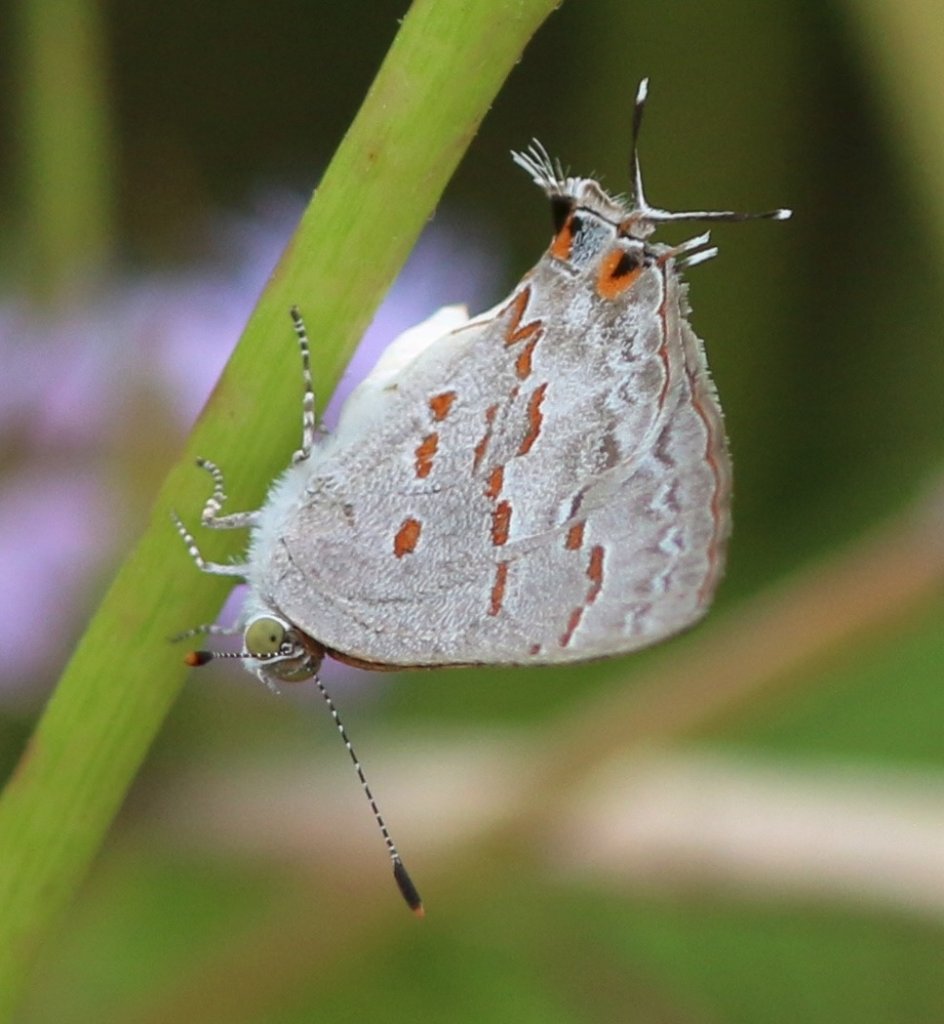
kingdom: Animalia
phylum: Arthropoda
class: Insecta
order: Lepidoptera
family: Lycaenidae
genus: Ministrymon
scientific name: Ministrymon clytie
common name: Clytie Ministreak
